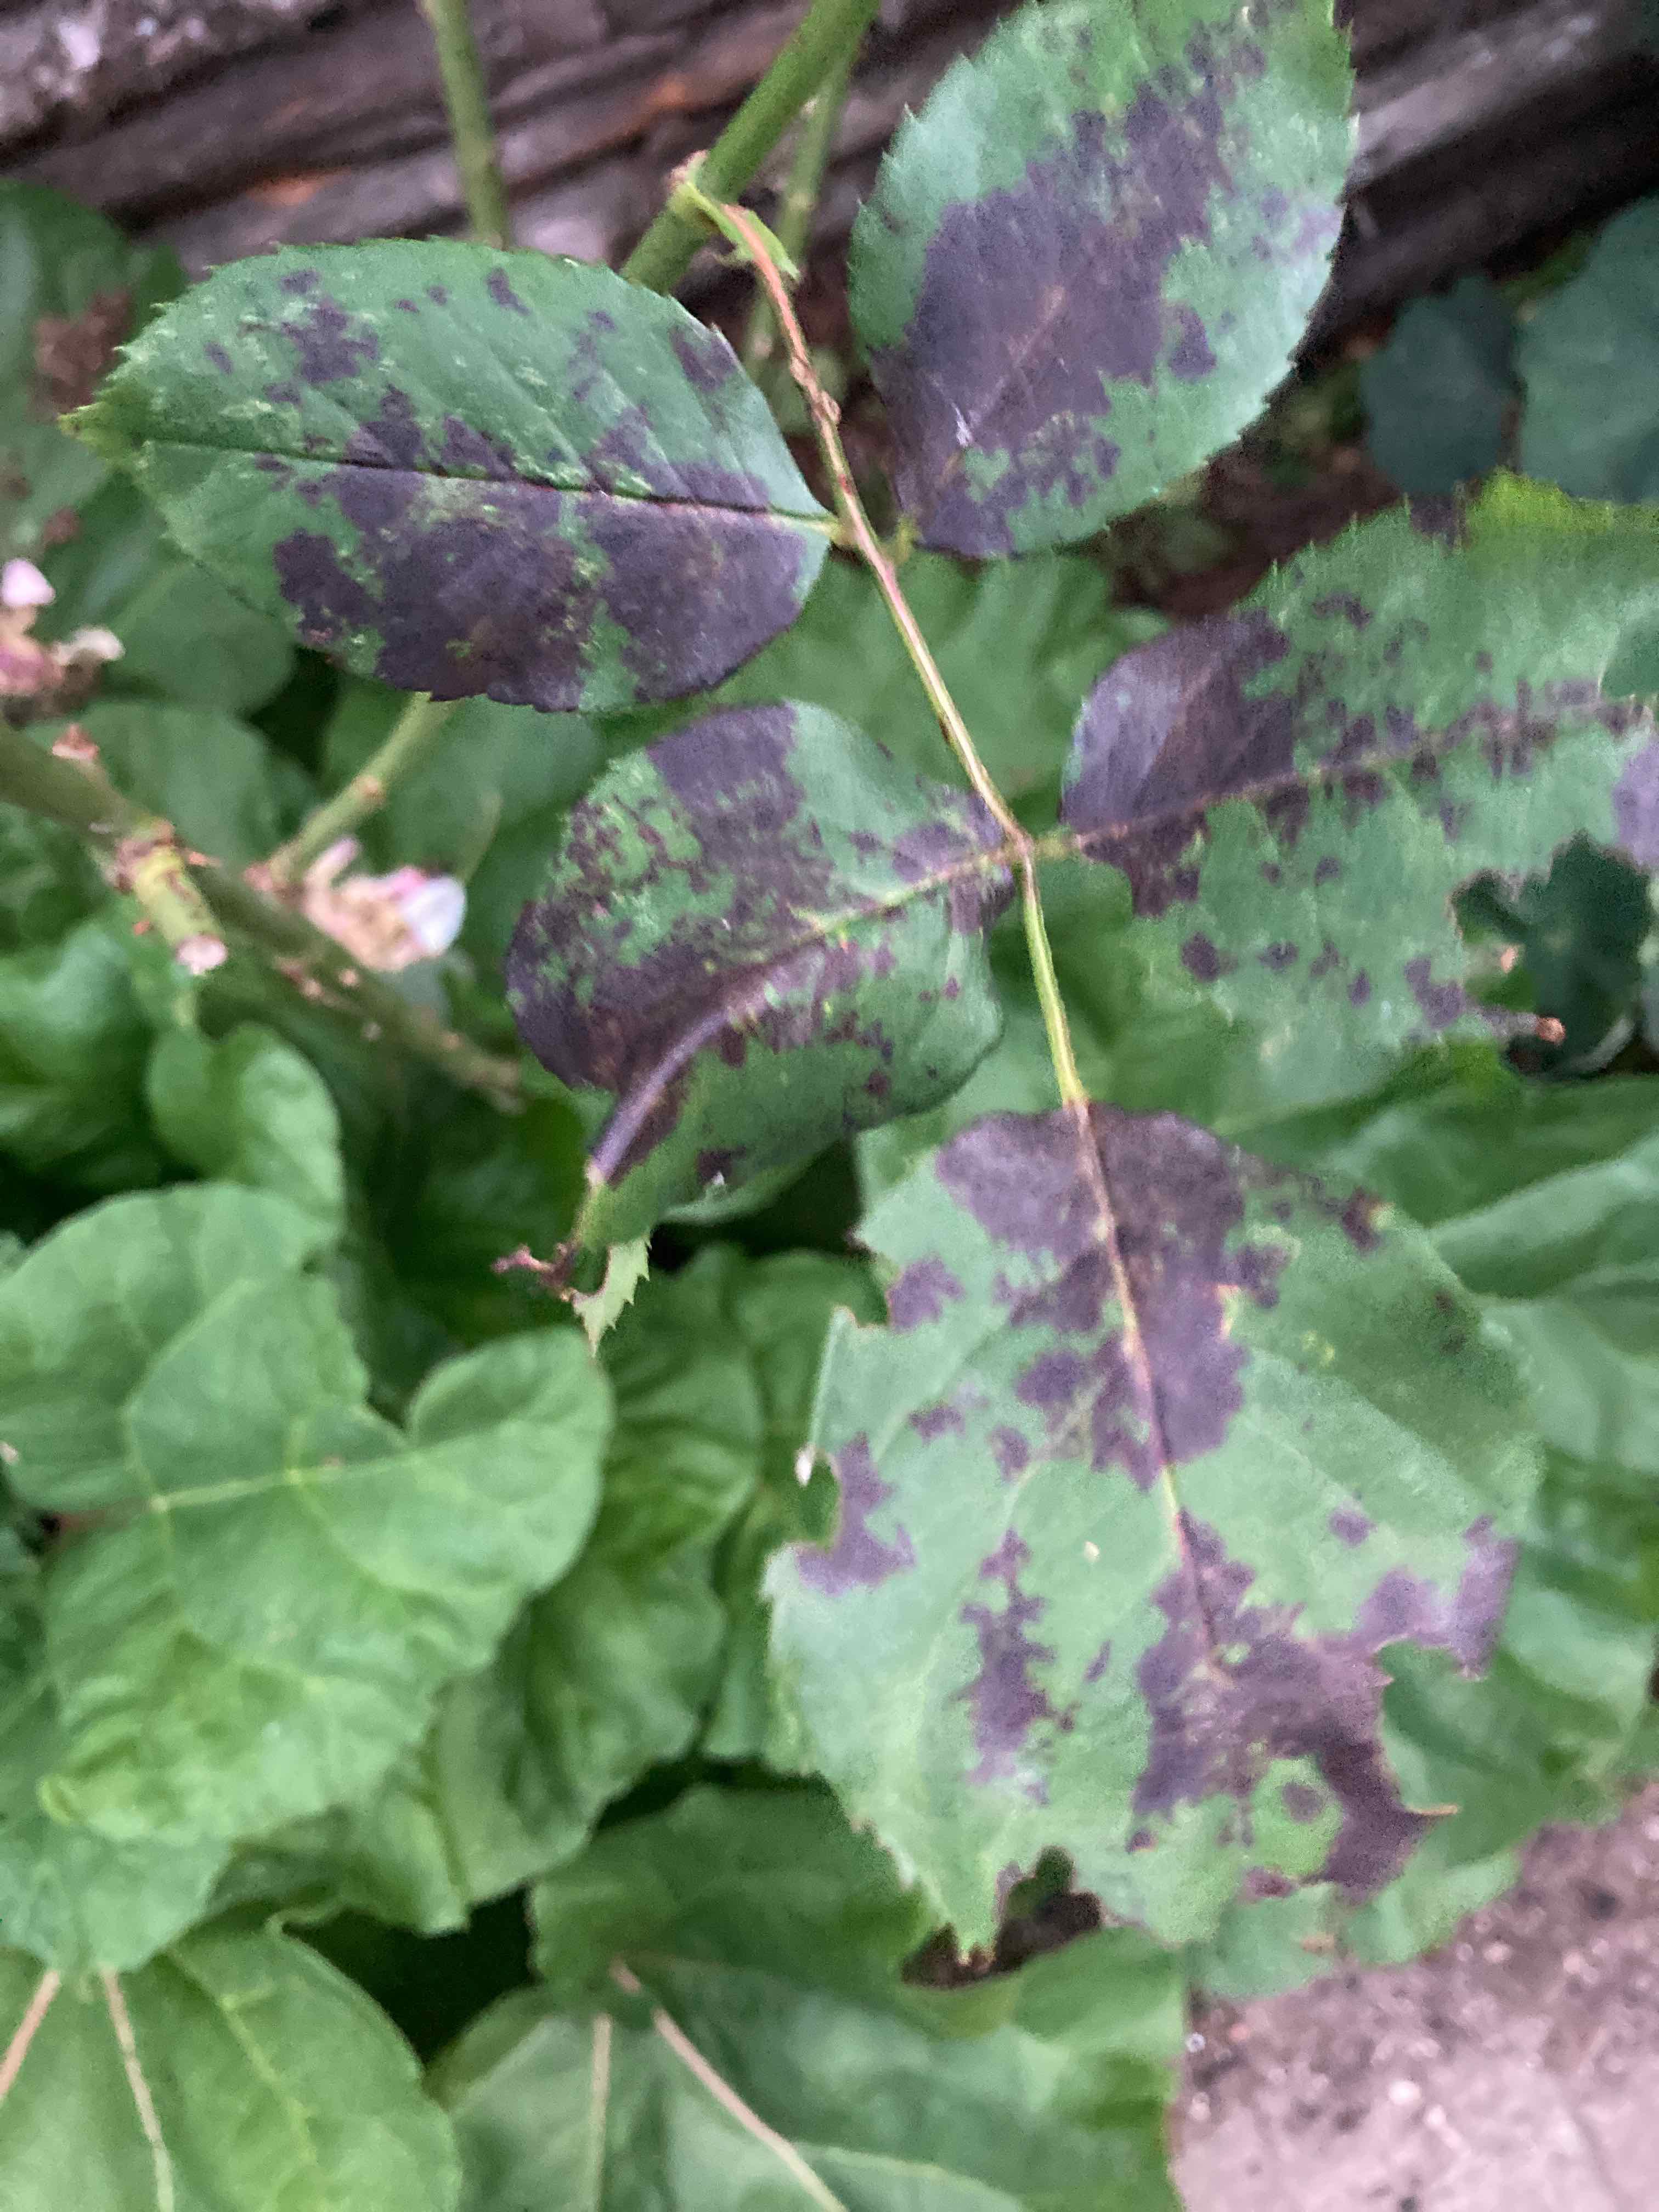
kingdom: Fungi
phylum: Ascomycota
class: Leotiomycetes
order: Helotiales
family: Drepanopezizaceae
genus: Diplocarpon
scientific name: Diplocarpon rosae
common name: Rose black-spot
